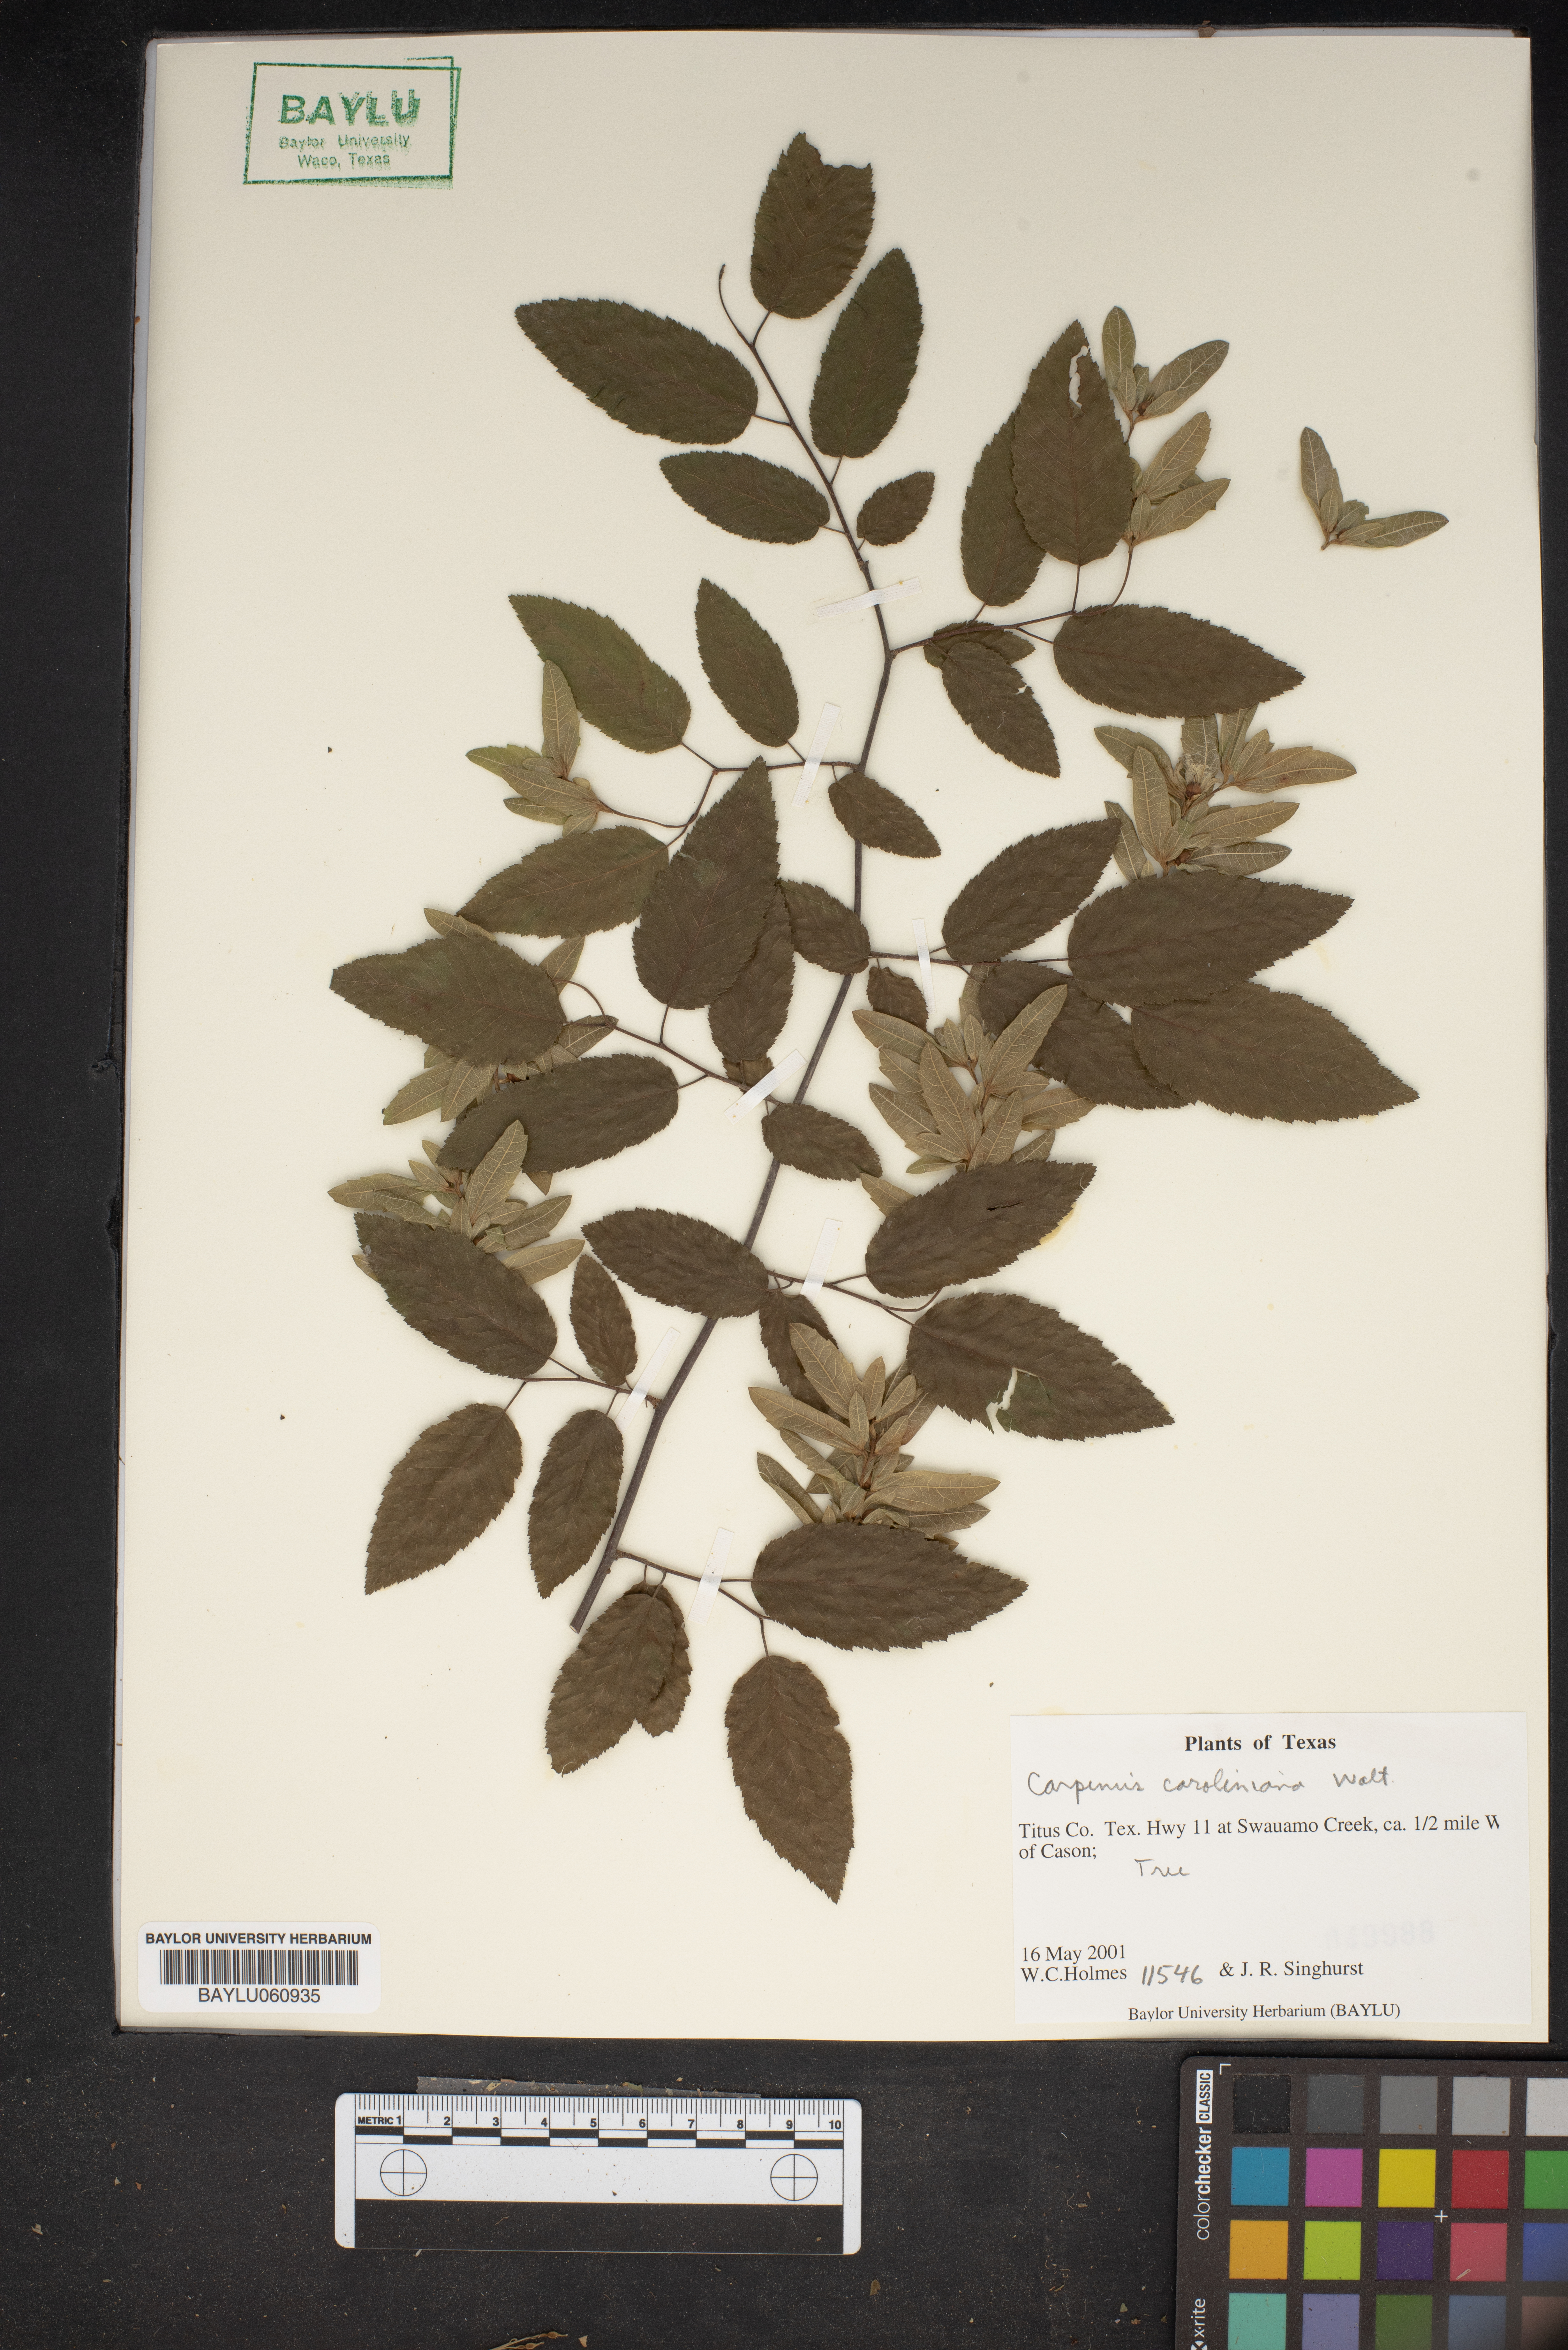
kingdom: Plantae
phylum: Tracheophyta
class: Magnoliopsida
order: Fagales
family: Betulaceae
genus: Carpinus
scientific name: Carpinus caroliniana
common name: American hornbeam
